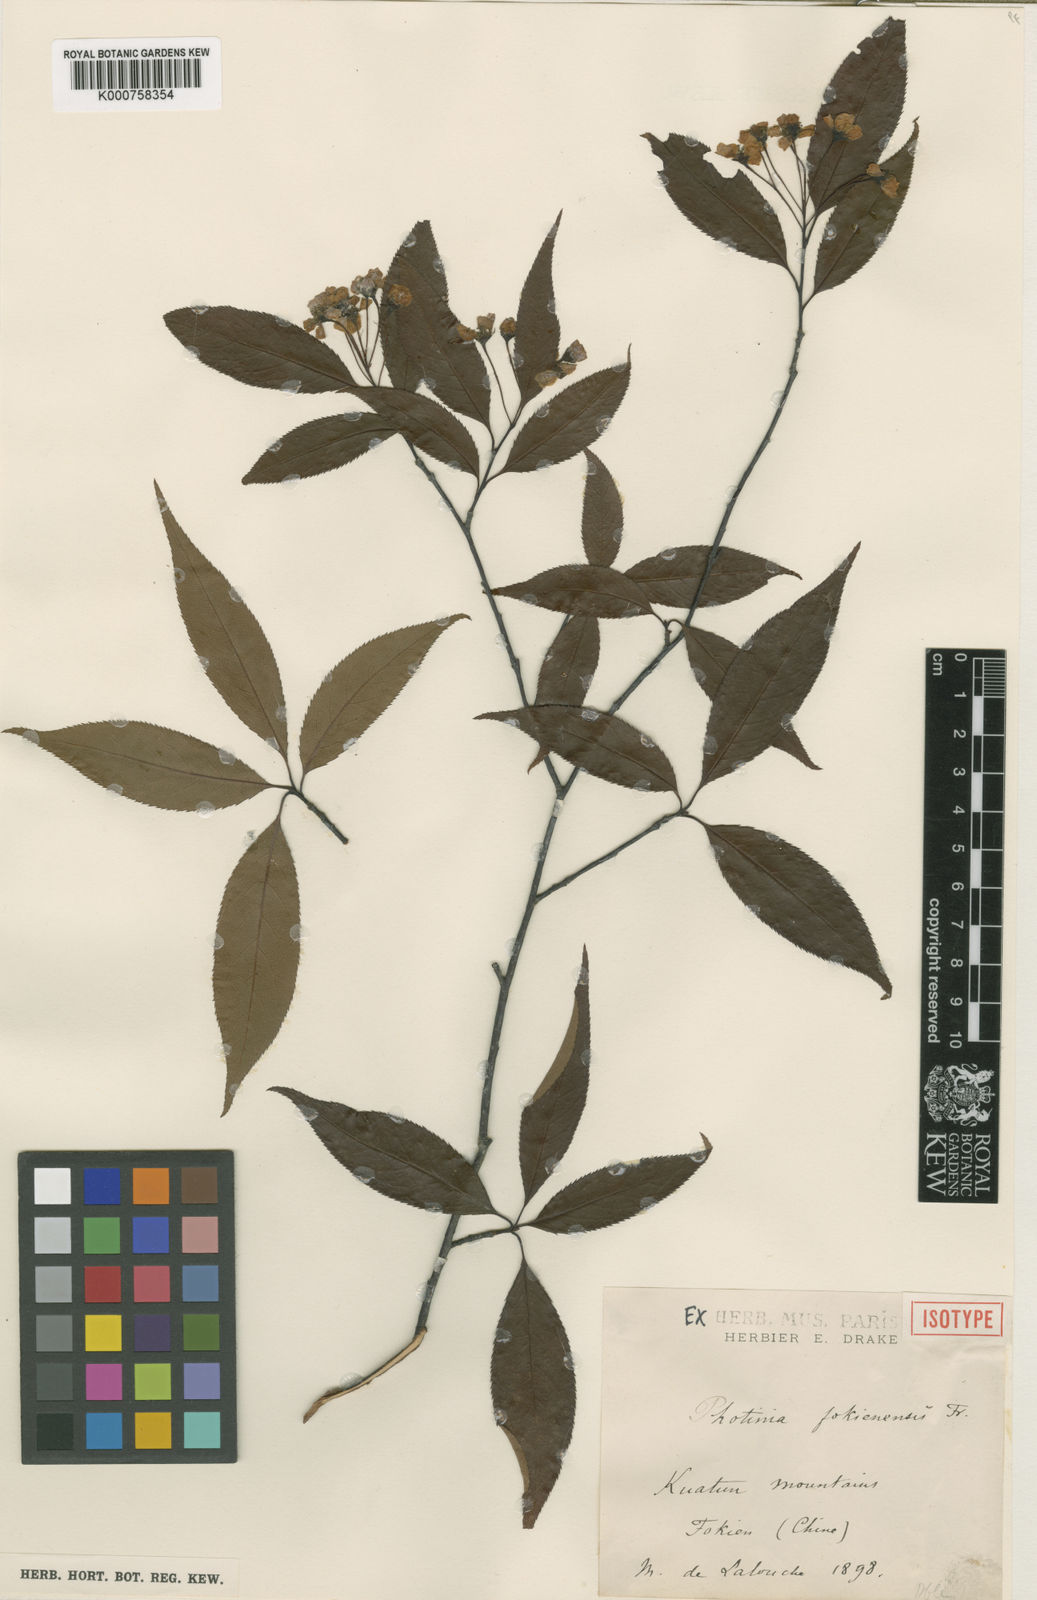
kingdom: Plantae
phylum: Tracheophyta
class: Magnoliopsida
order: Rosales
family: Rosaceae
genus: Pourthiaea
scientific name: Pourthiaea fokienensis
